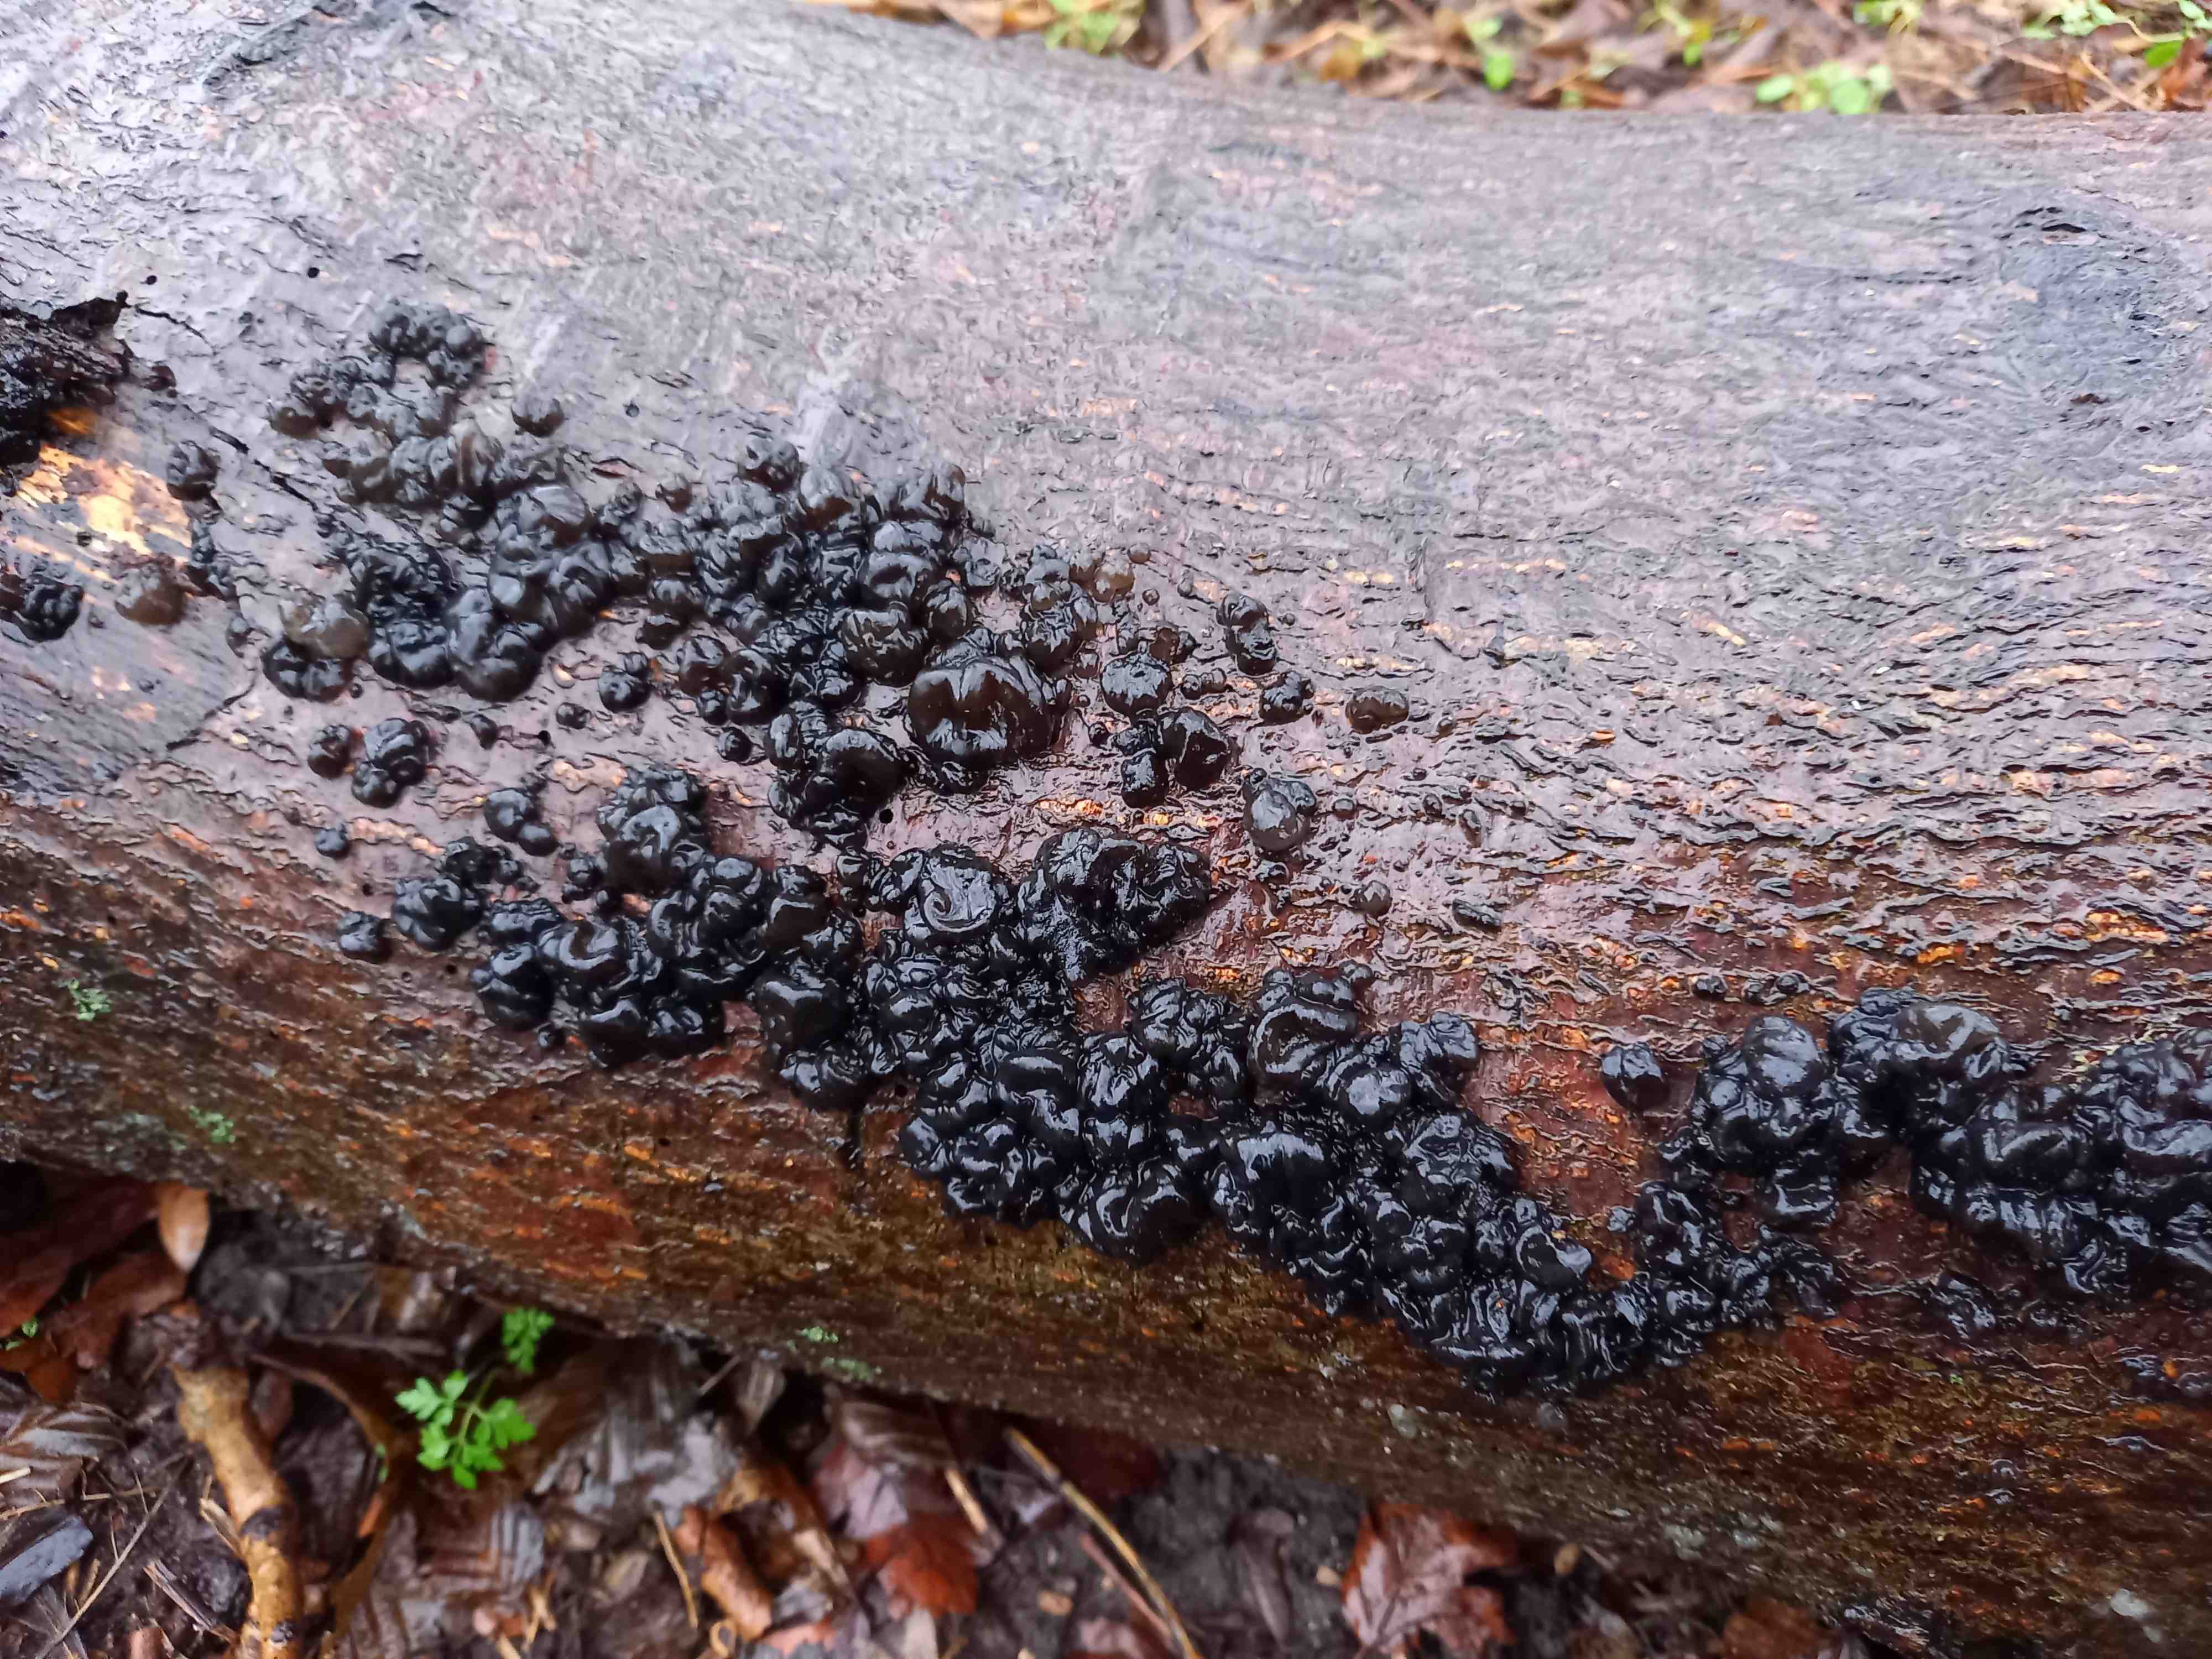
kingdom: Fungi
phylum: Basidiomycota
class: Agaricomycetes
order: Auriculariales
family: Auriculariaceae
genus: Exidia
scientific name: Exidia nigricans
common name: almindelig bævretop
